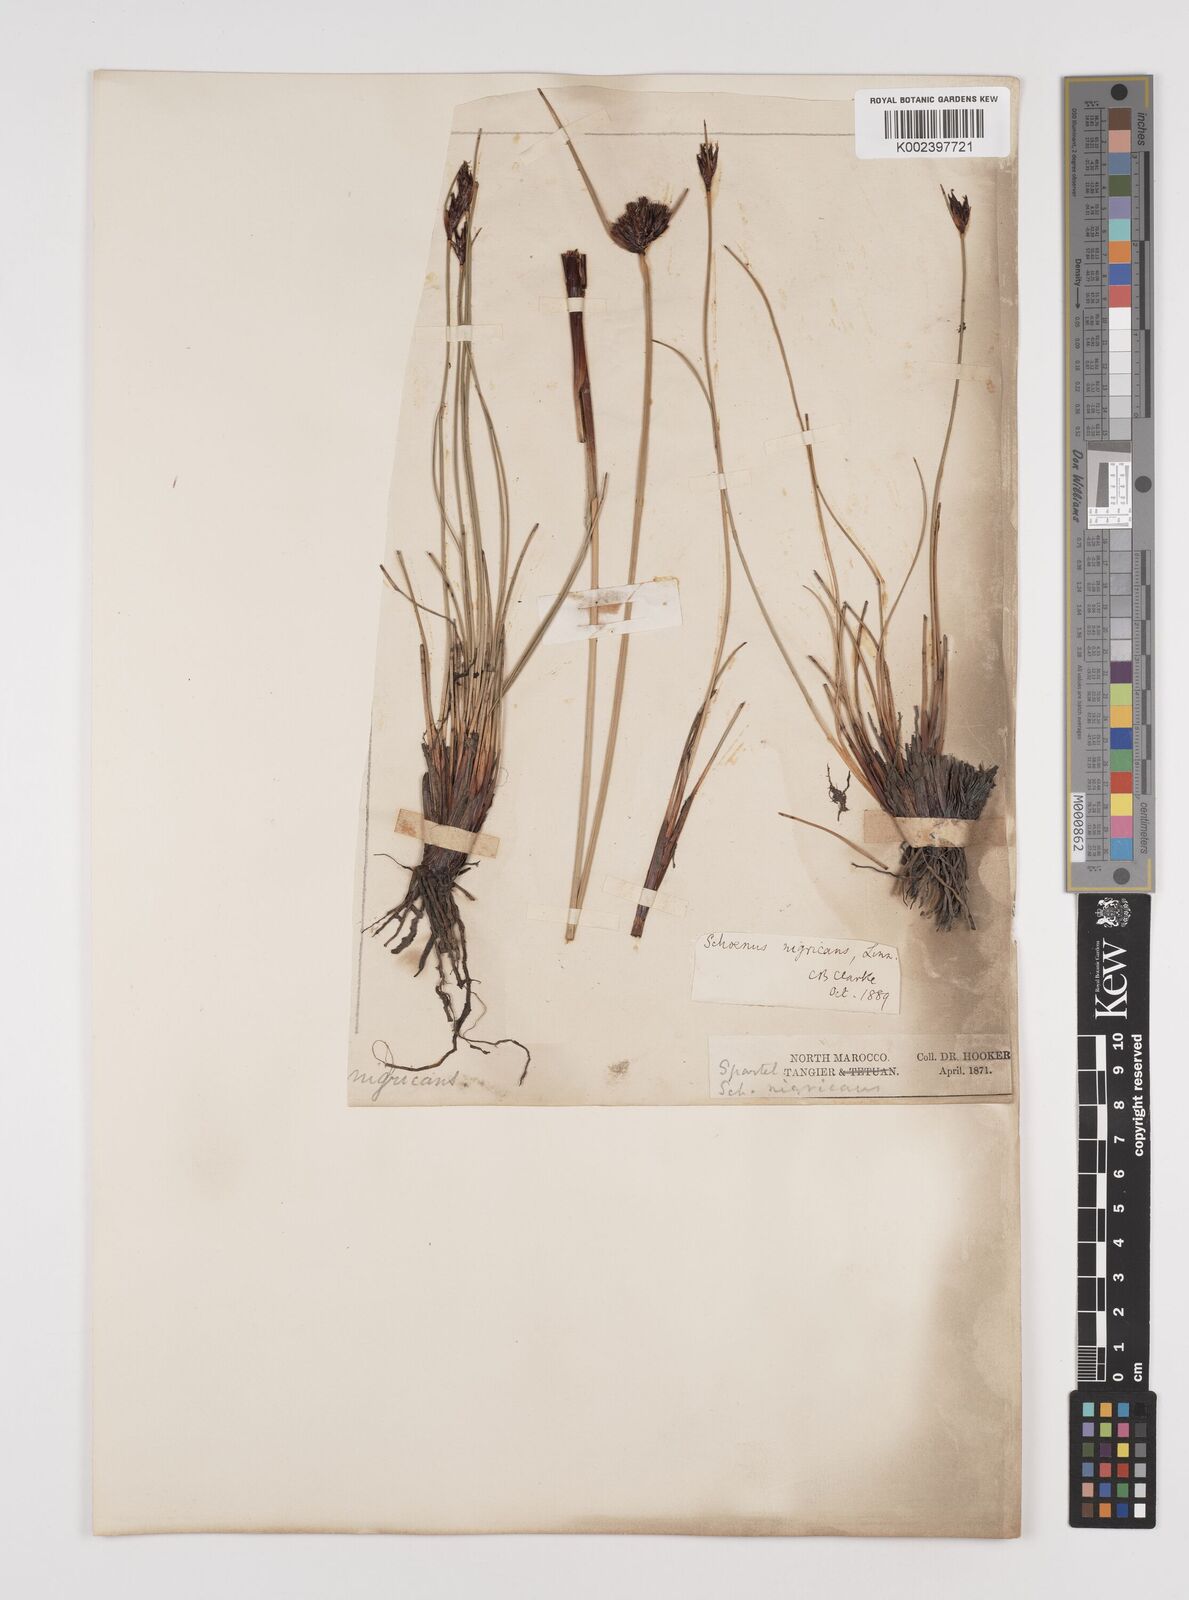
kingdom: Plantae
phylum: Tracheophyta
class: Liliopsida
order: Poales
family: Cyperaceae
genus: Schoenus
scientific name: Schoenus nigricans
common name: Black bog-rush
